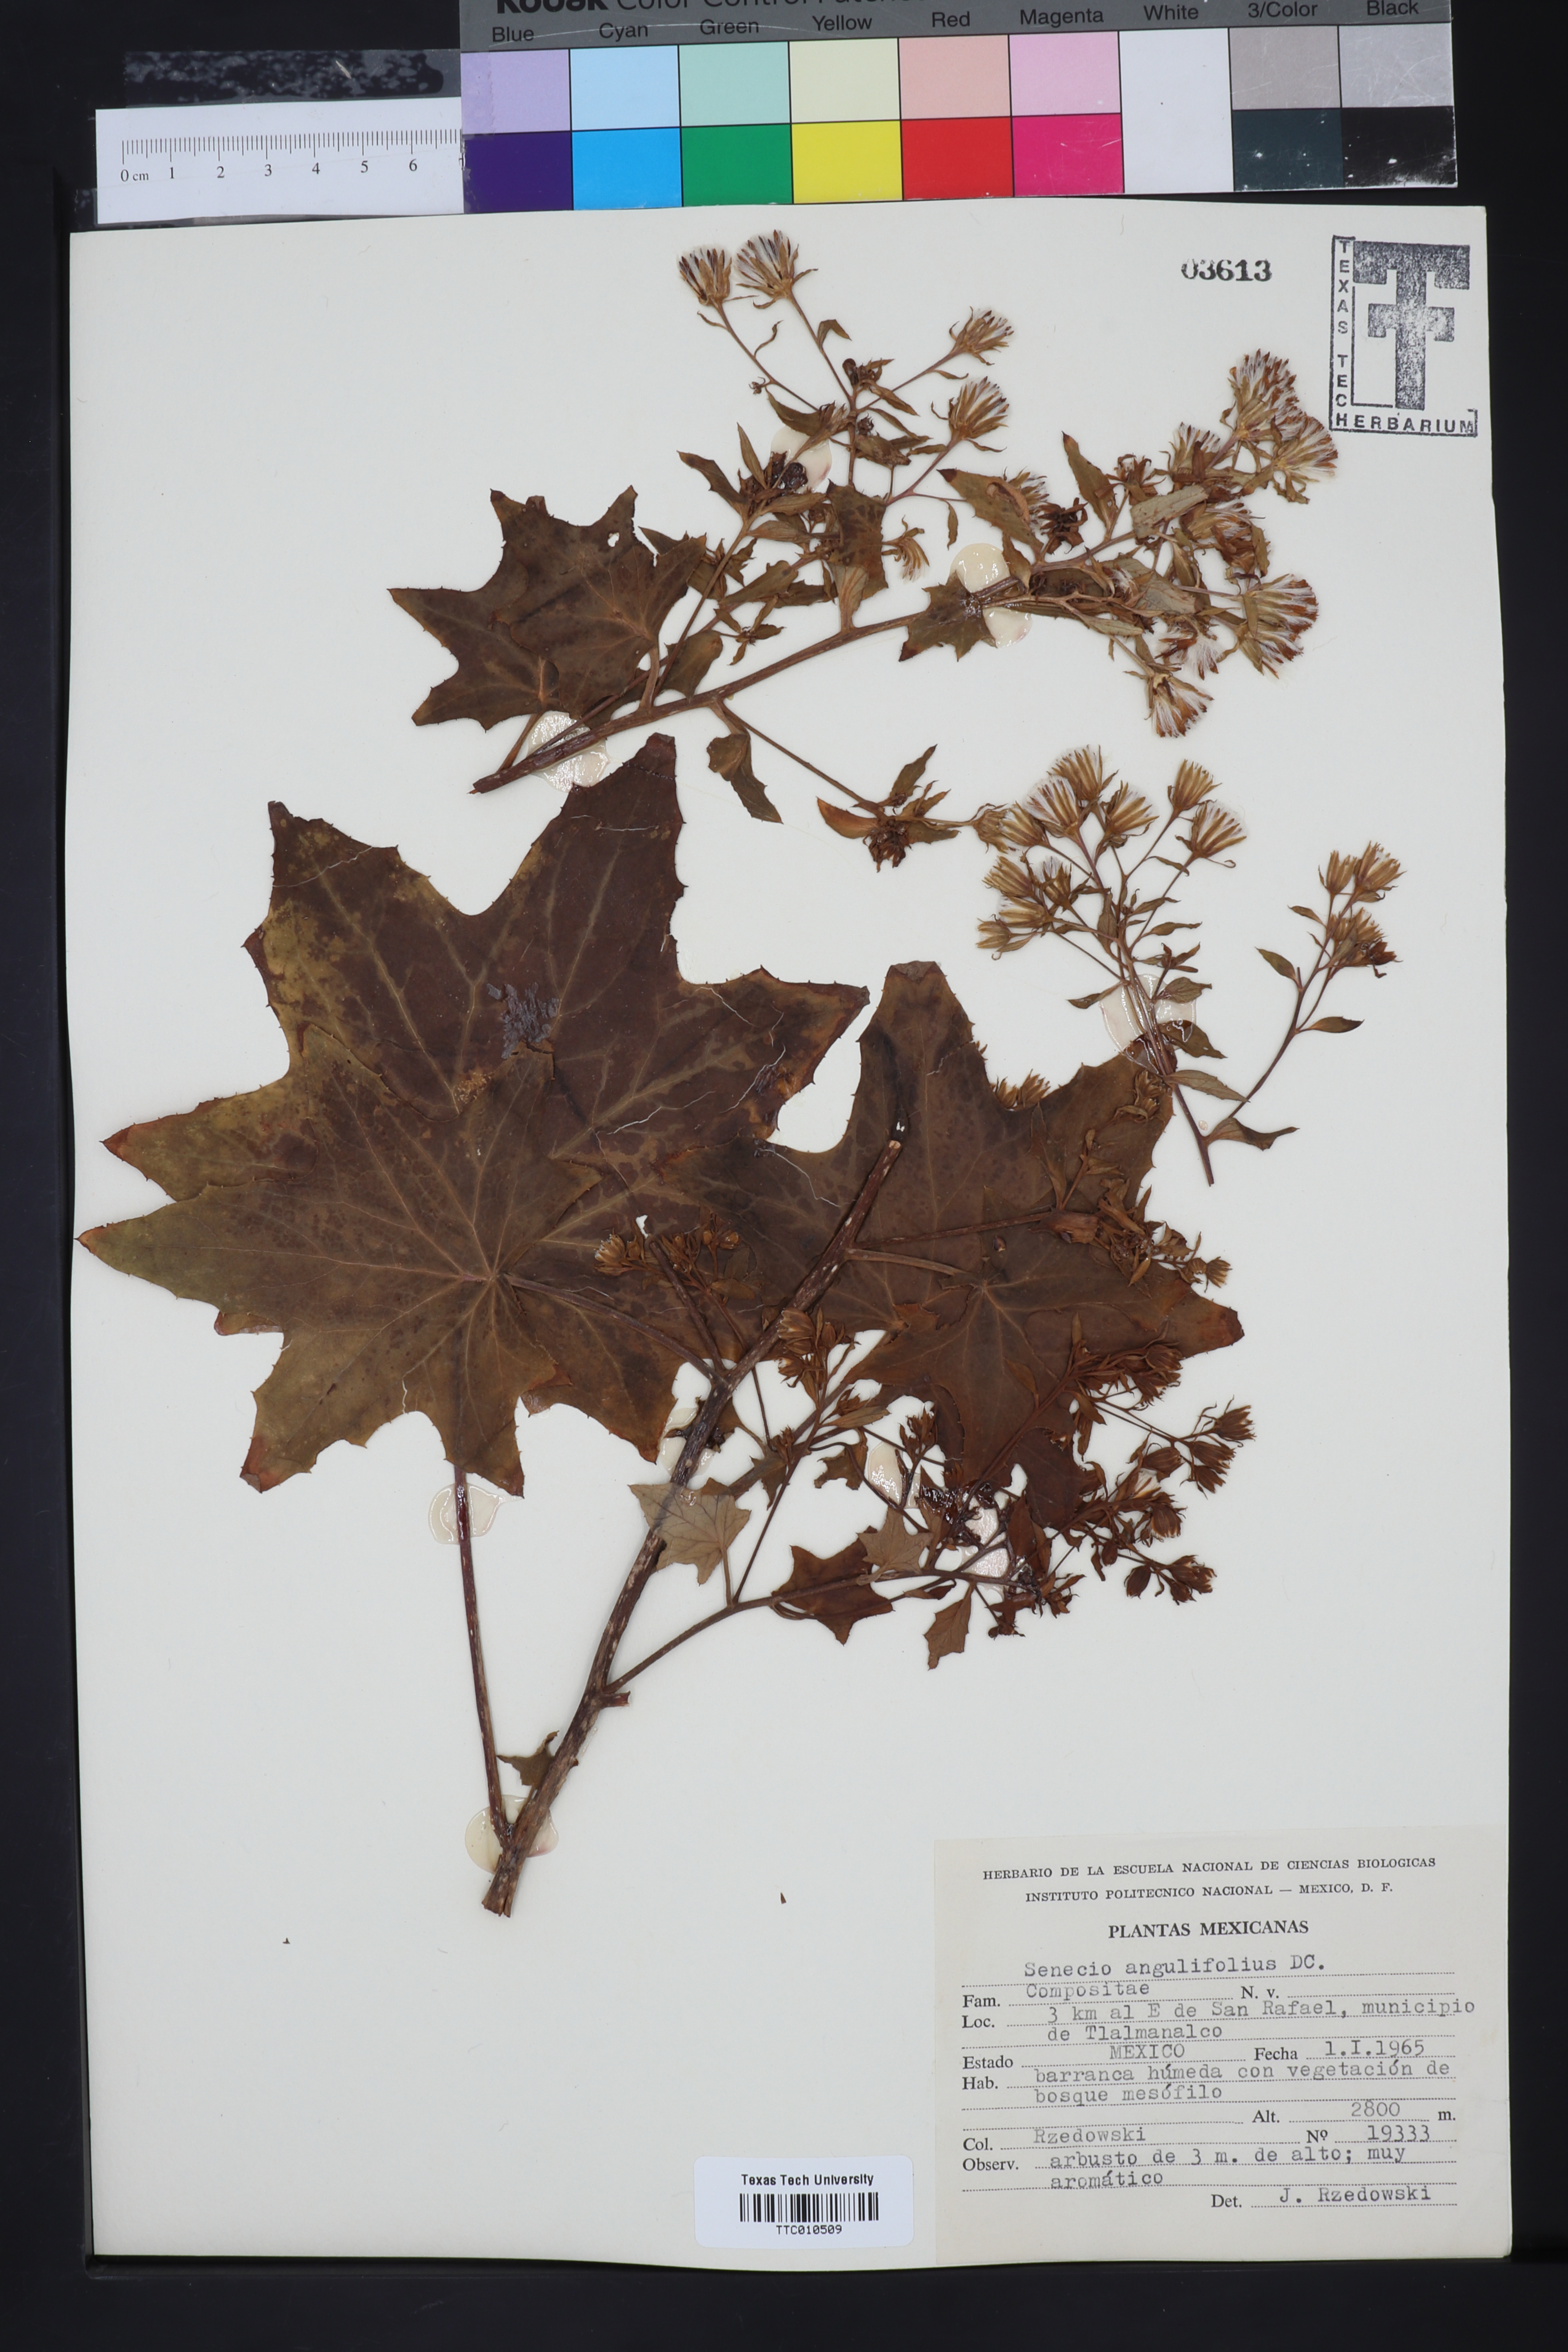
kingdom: Plantae
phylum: Tracheophyta
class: Magnoliopsida
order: Asterales
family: Asteraceae
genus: Roldana
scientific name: Roldana angulifolia
